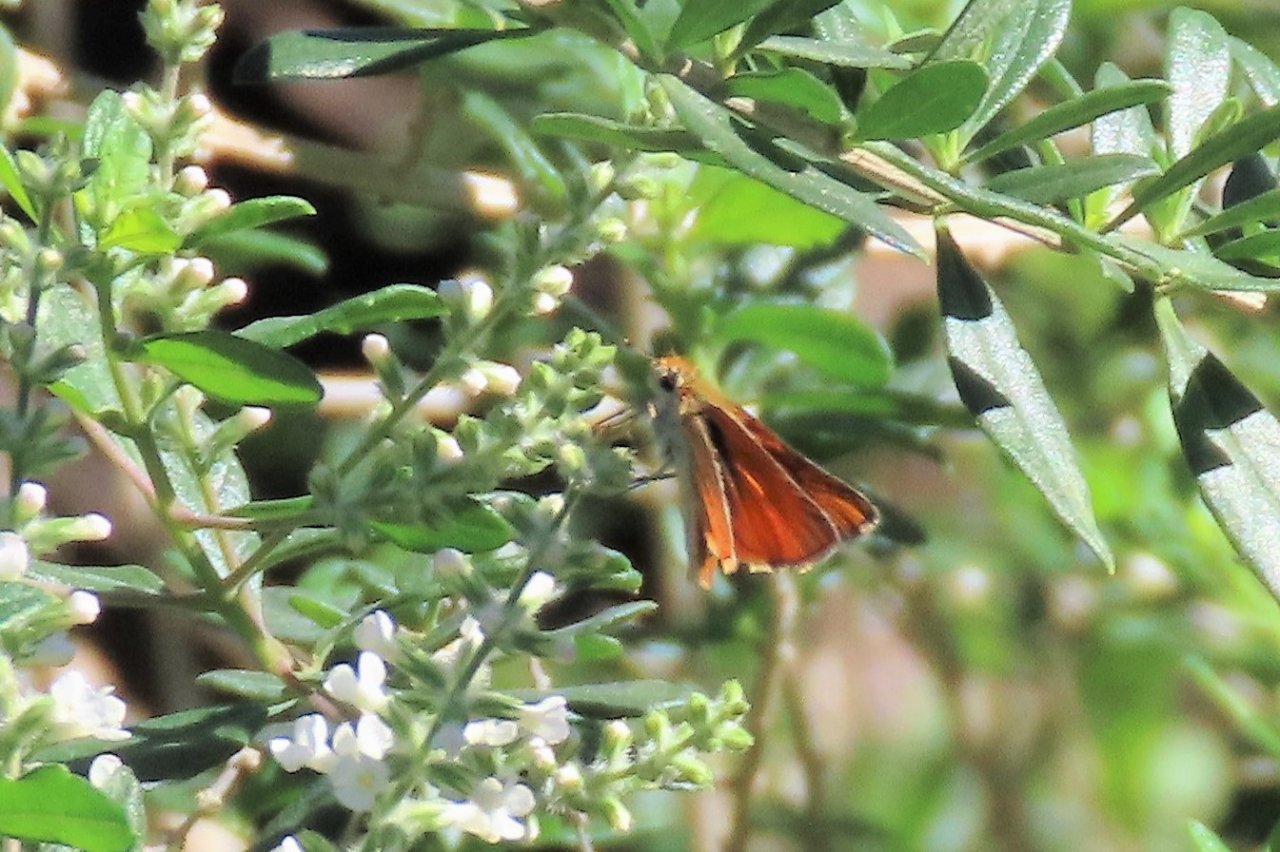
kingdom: Animalia
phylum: Arthropoda
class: Insecta
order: Lepidoptera
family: Hesperiidae
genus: Copaeodes
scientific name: Copaeodes minima
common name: Southern Skipperling
